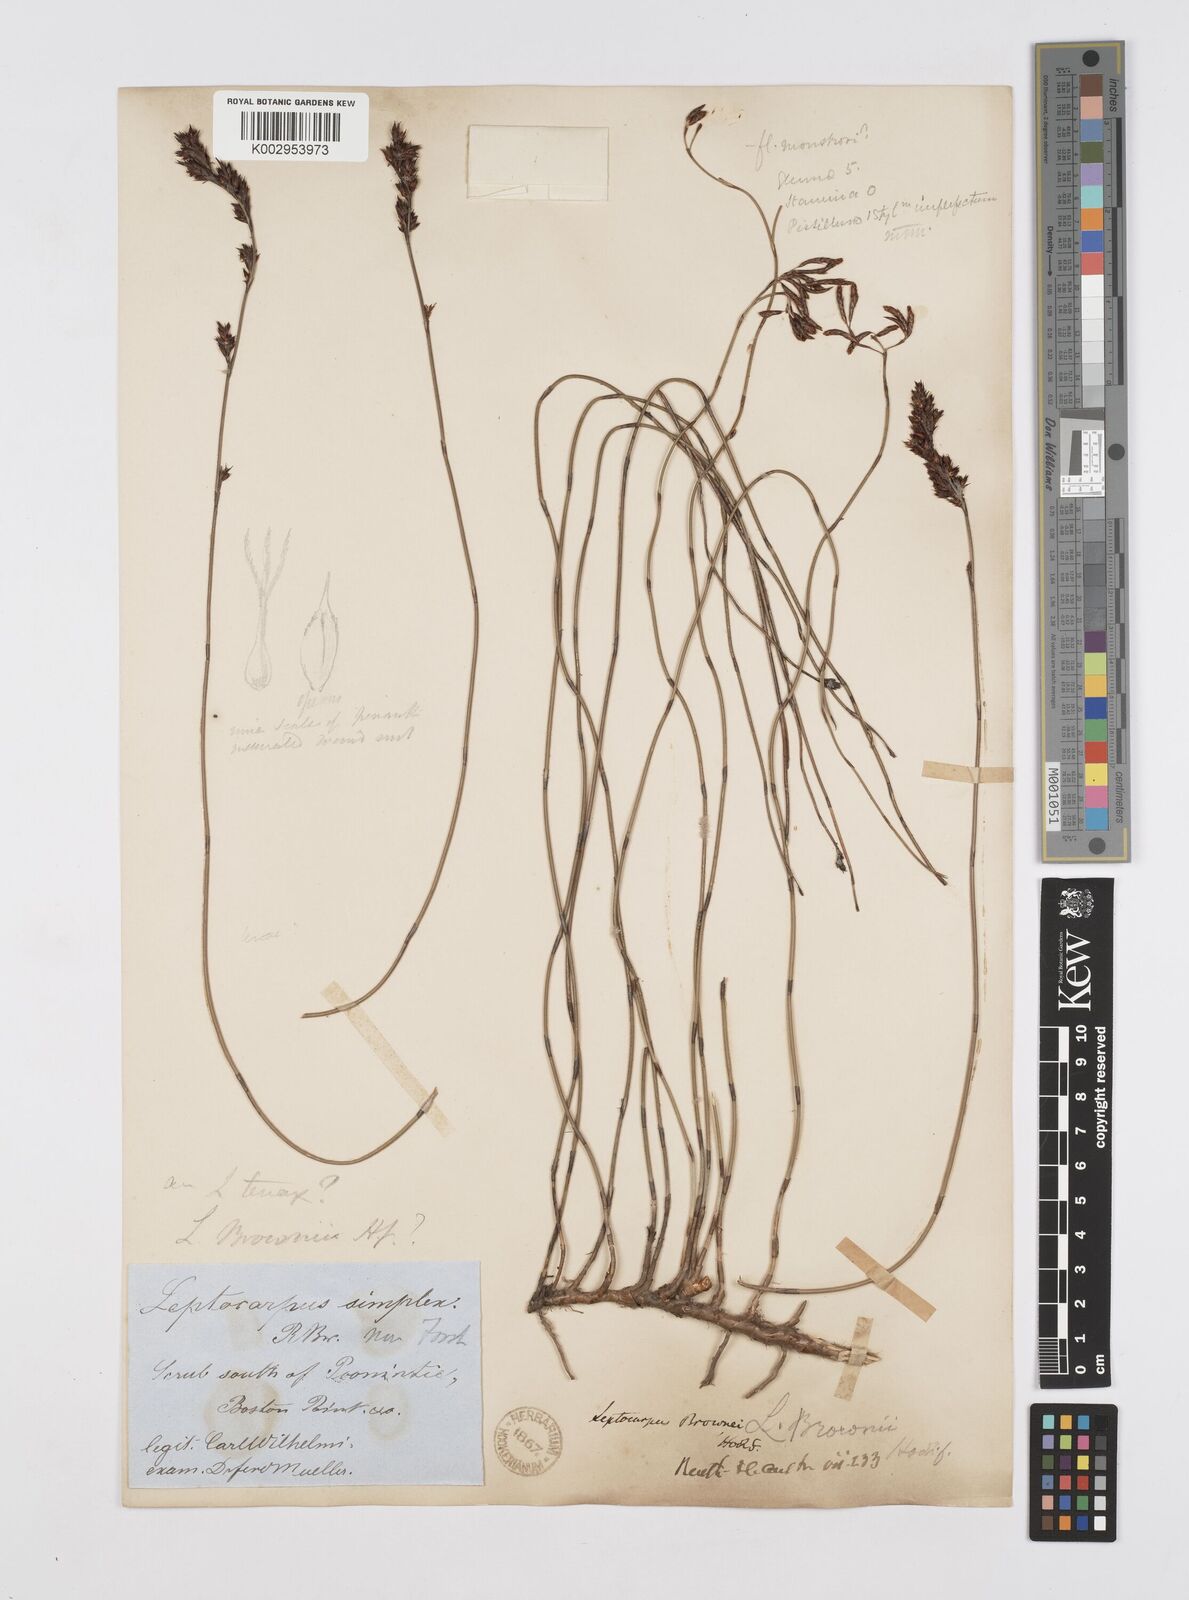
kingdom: Plantae
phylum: Tracheophyta
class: Liliopsida
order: Poales
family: Restionaceae
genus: Apodasmia
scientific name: Apodasmia brownii
